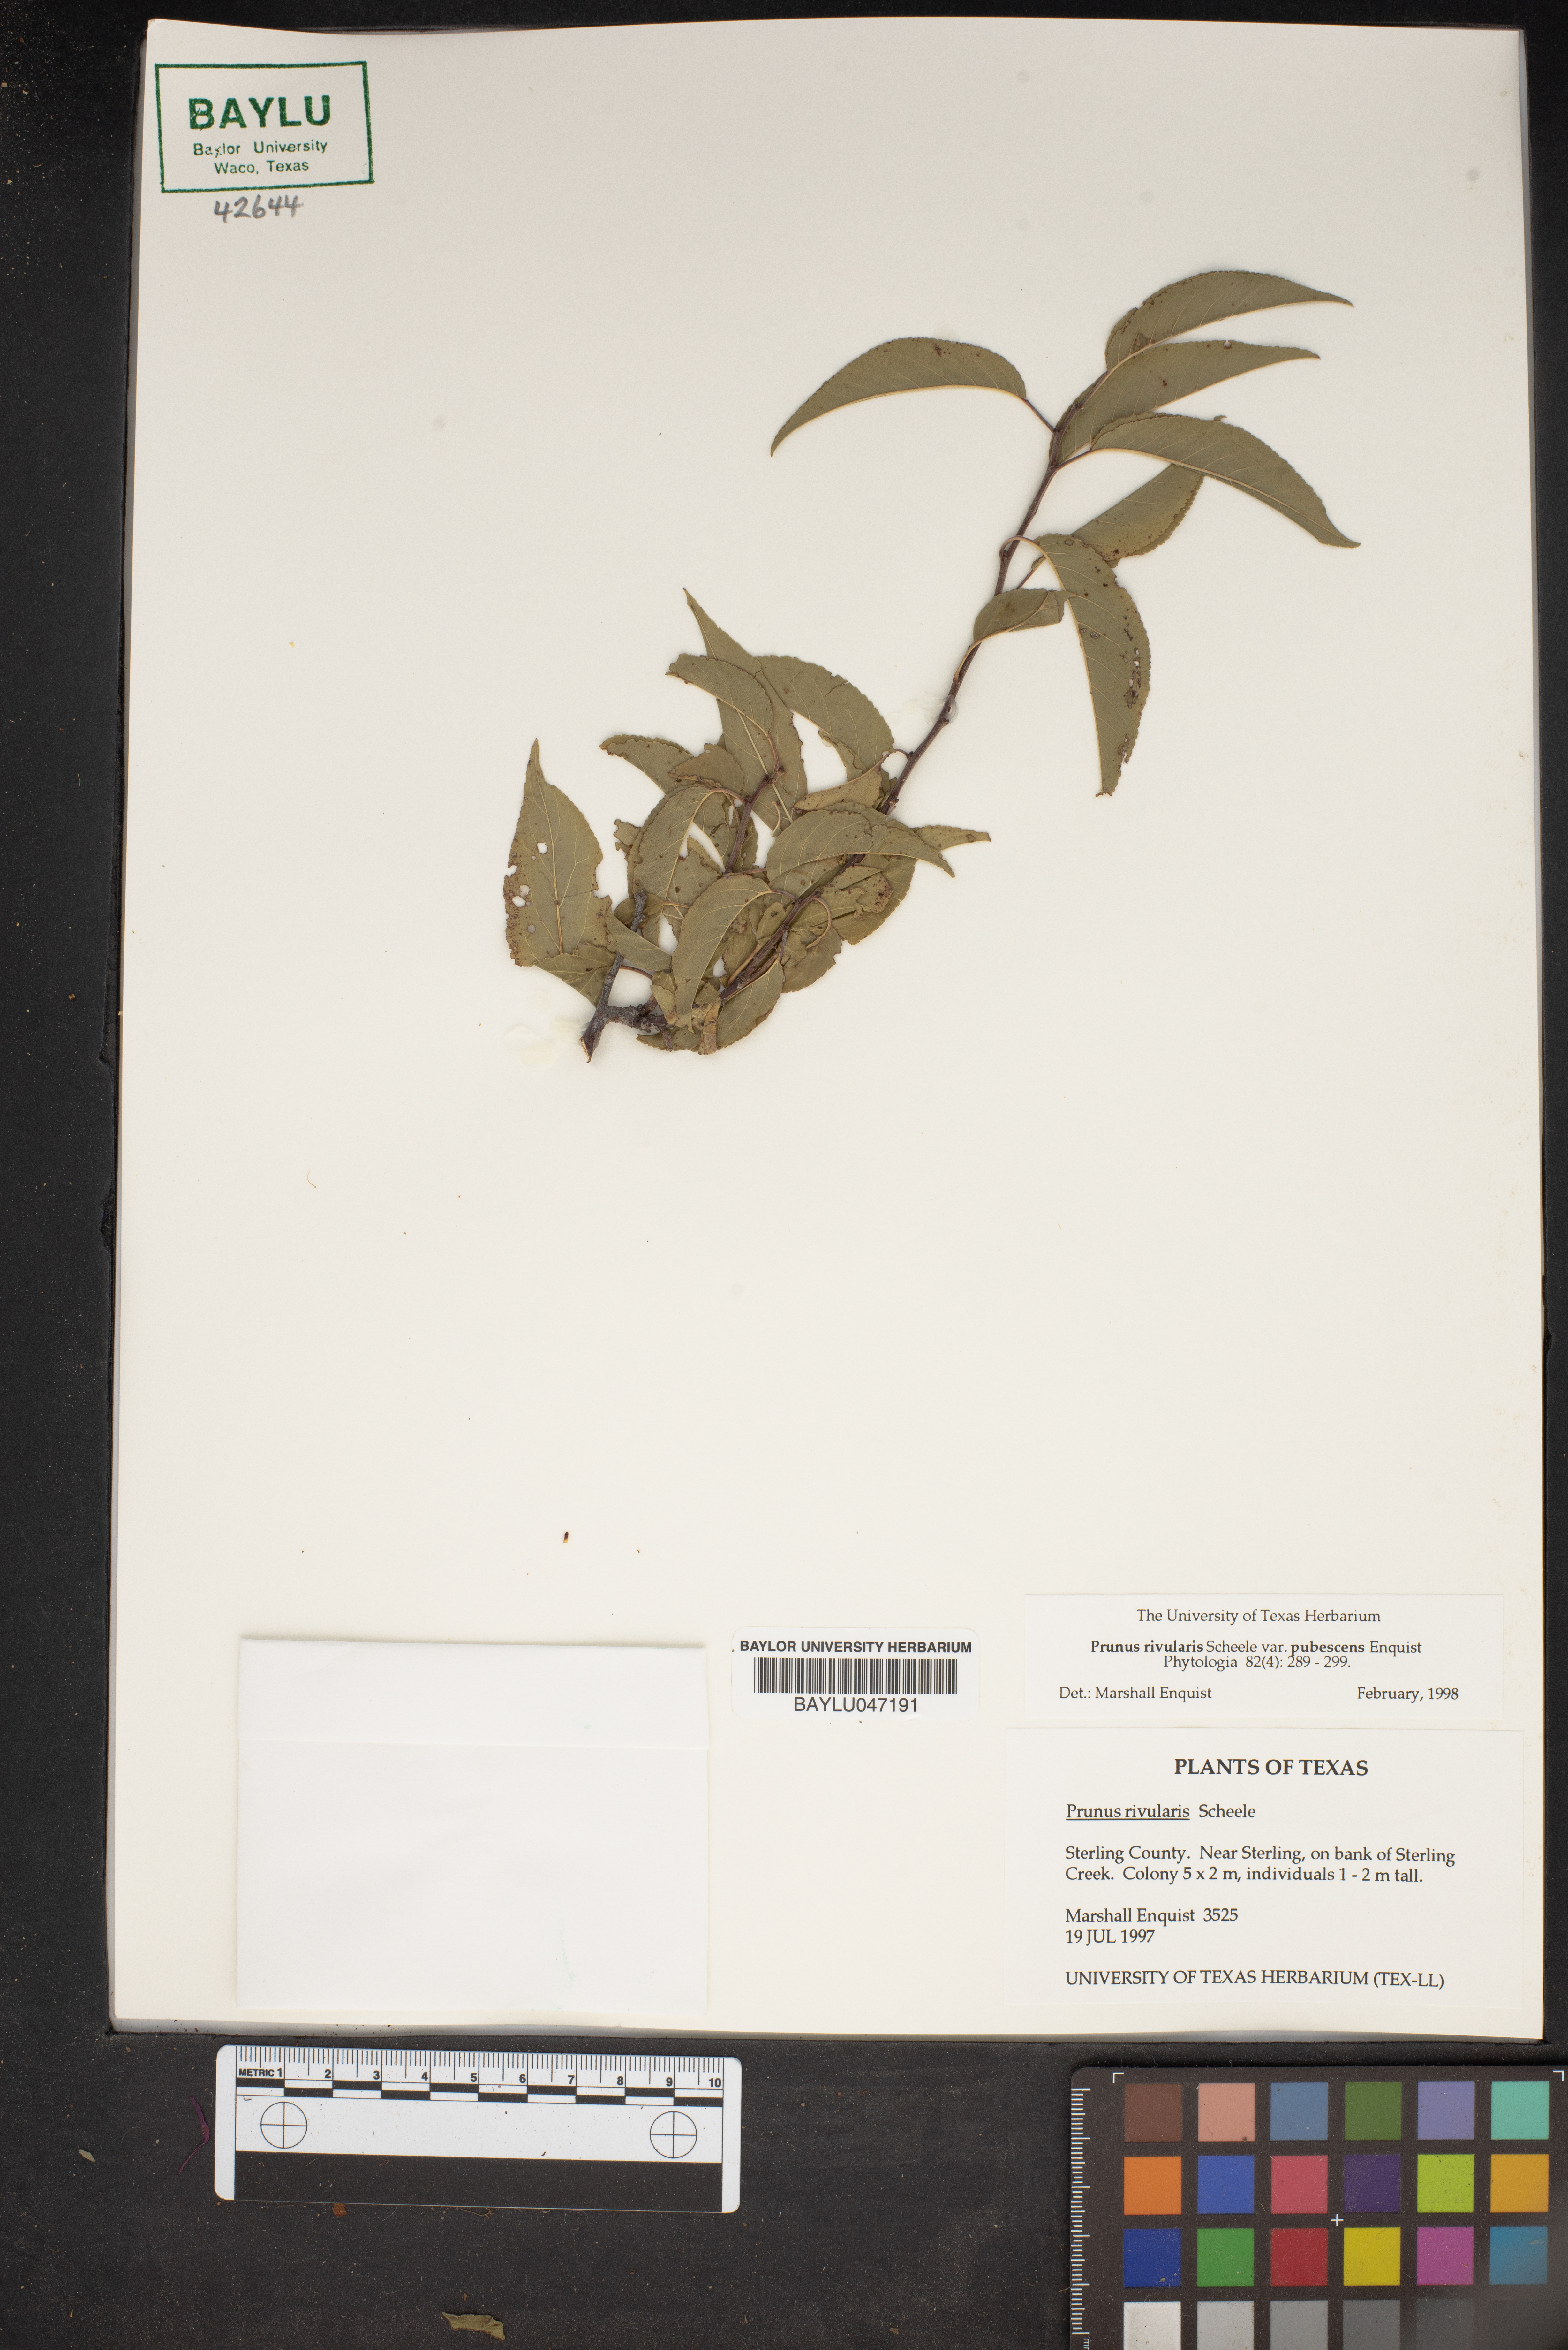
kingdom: Plantae
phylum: Tracheophyta
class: Magnoliopsida
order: Rosales
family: Rosaceae
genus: Prunus
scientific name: Prunus rivularis
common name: Creek plum
